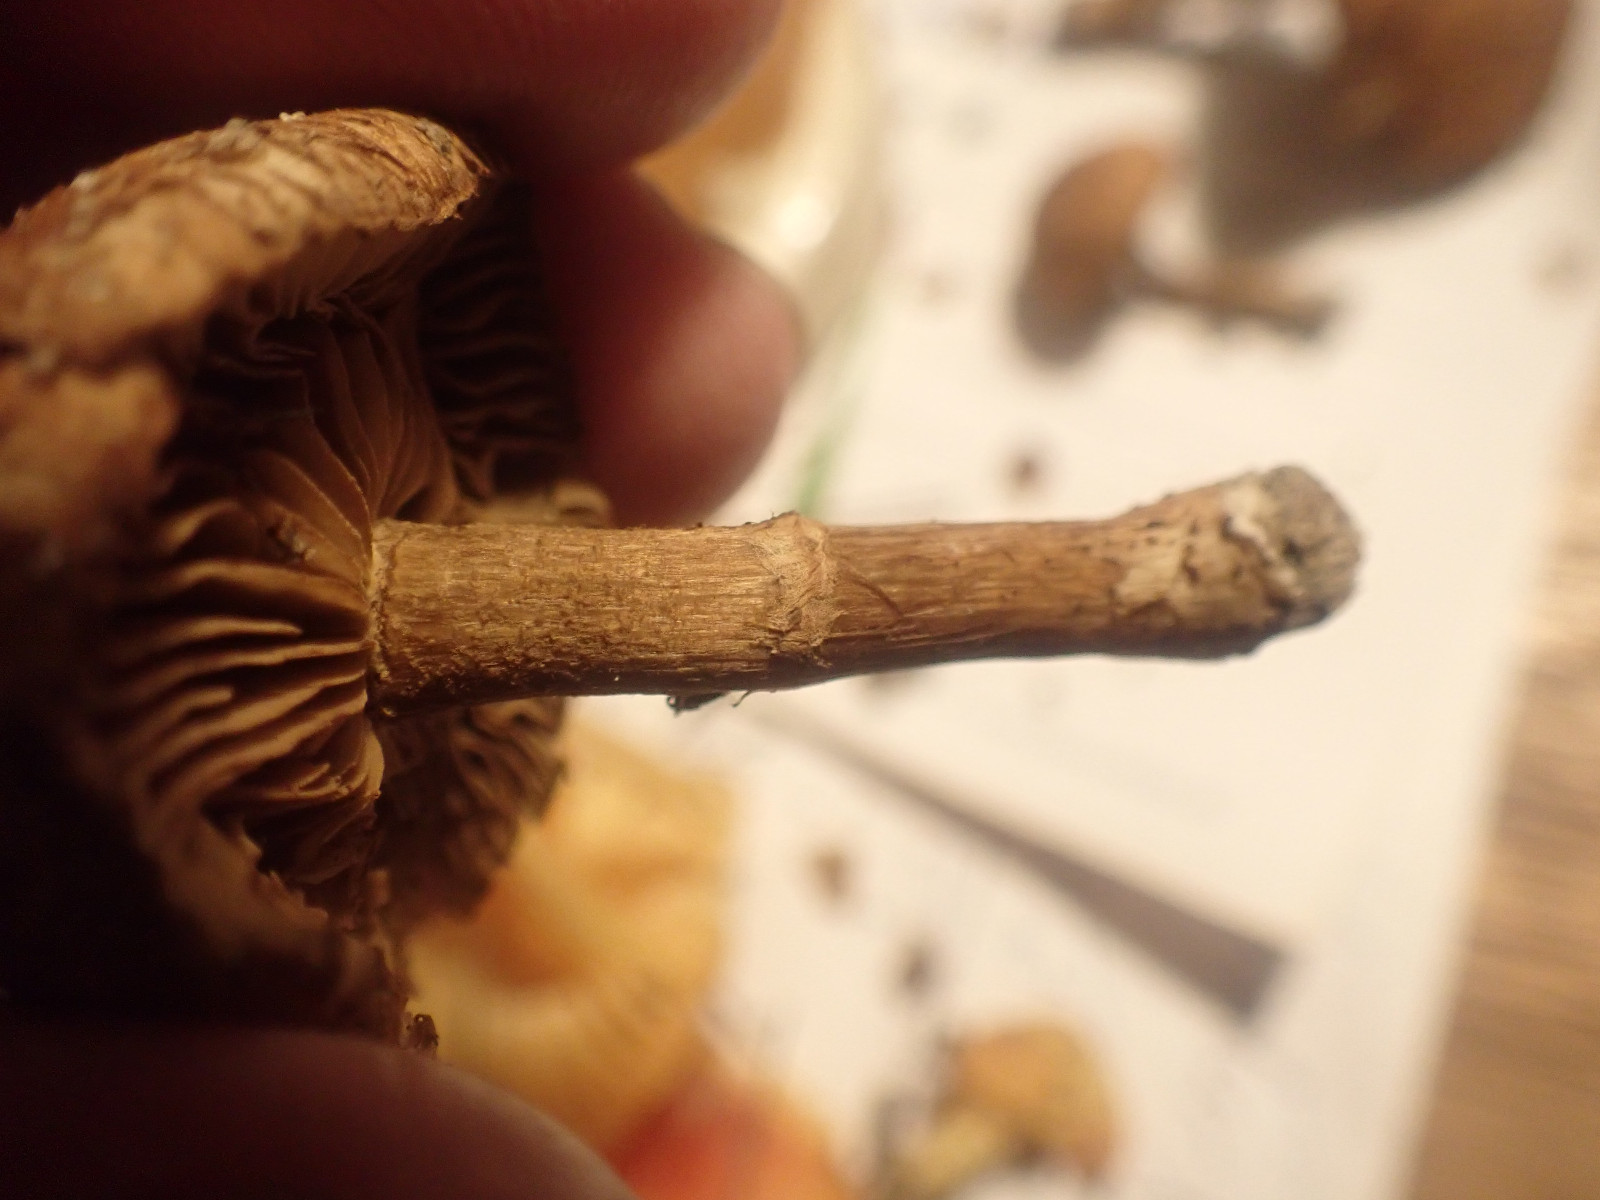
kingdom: Fungi
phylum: Basidiomycota
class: Agaricomycetes
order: Agaricales
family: Inocybaceae
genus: Mallocybe
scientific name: Mallocybe
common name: Trævlhat
